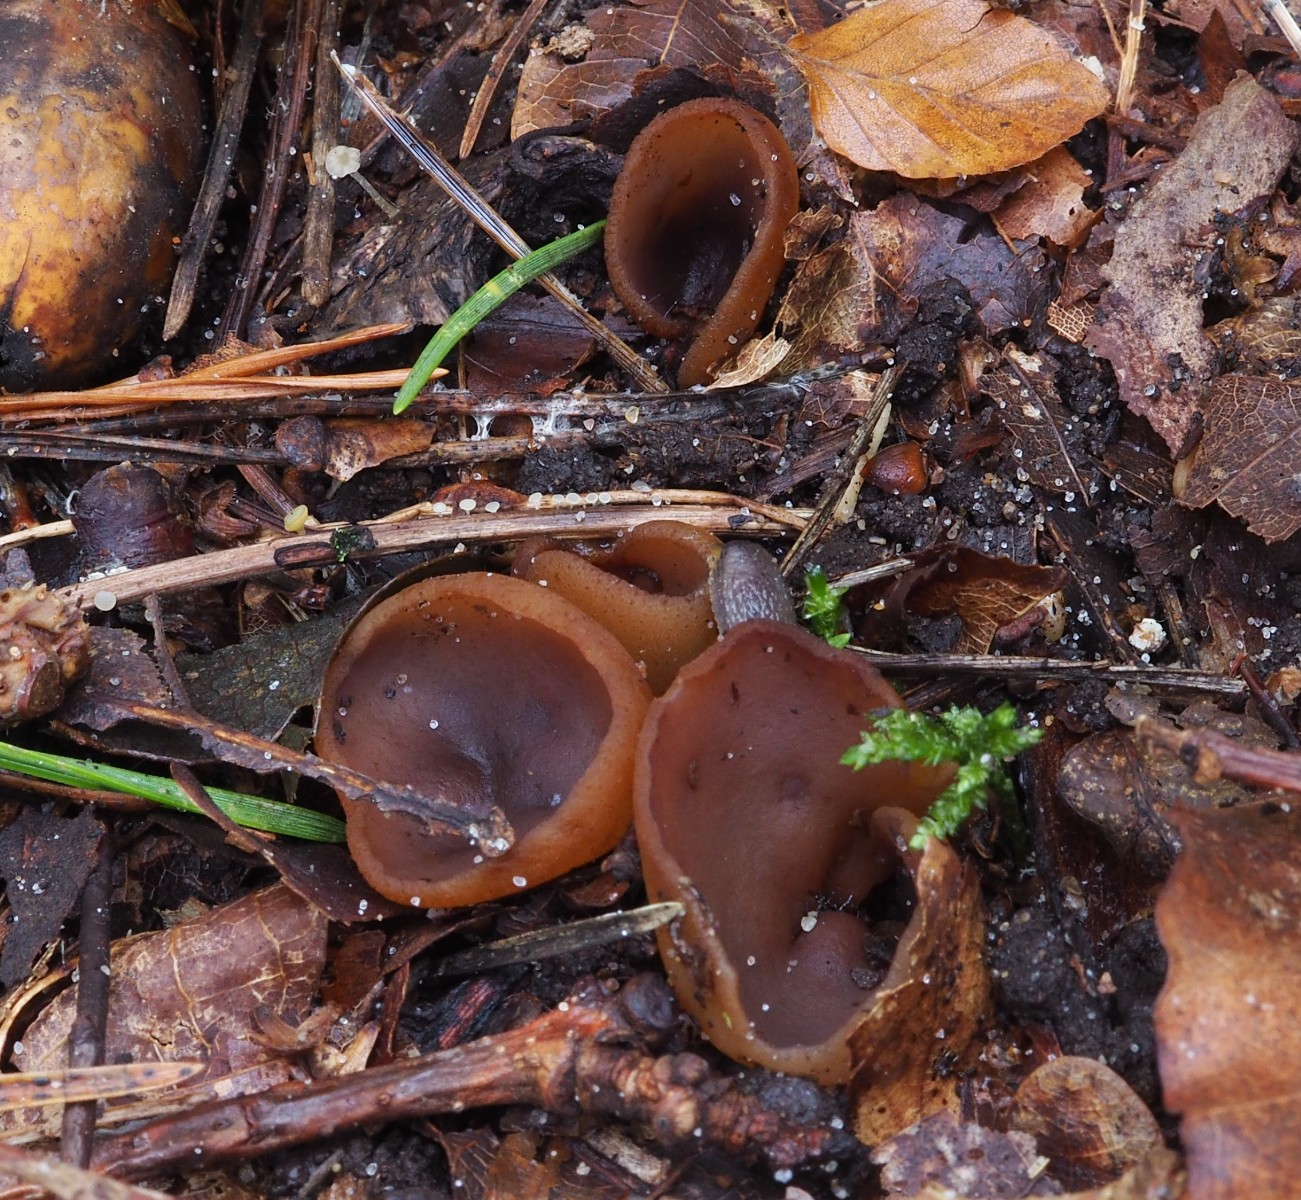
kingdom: Fungi
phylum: Ascomycota
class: Pezizomycetes
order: Pezizales
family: Pezizaceae
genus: Paragalactinia
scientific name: Paragalactinia michelii
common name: gulkødet bægersvamp
